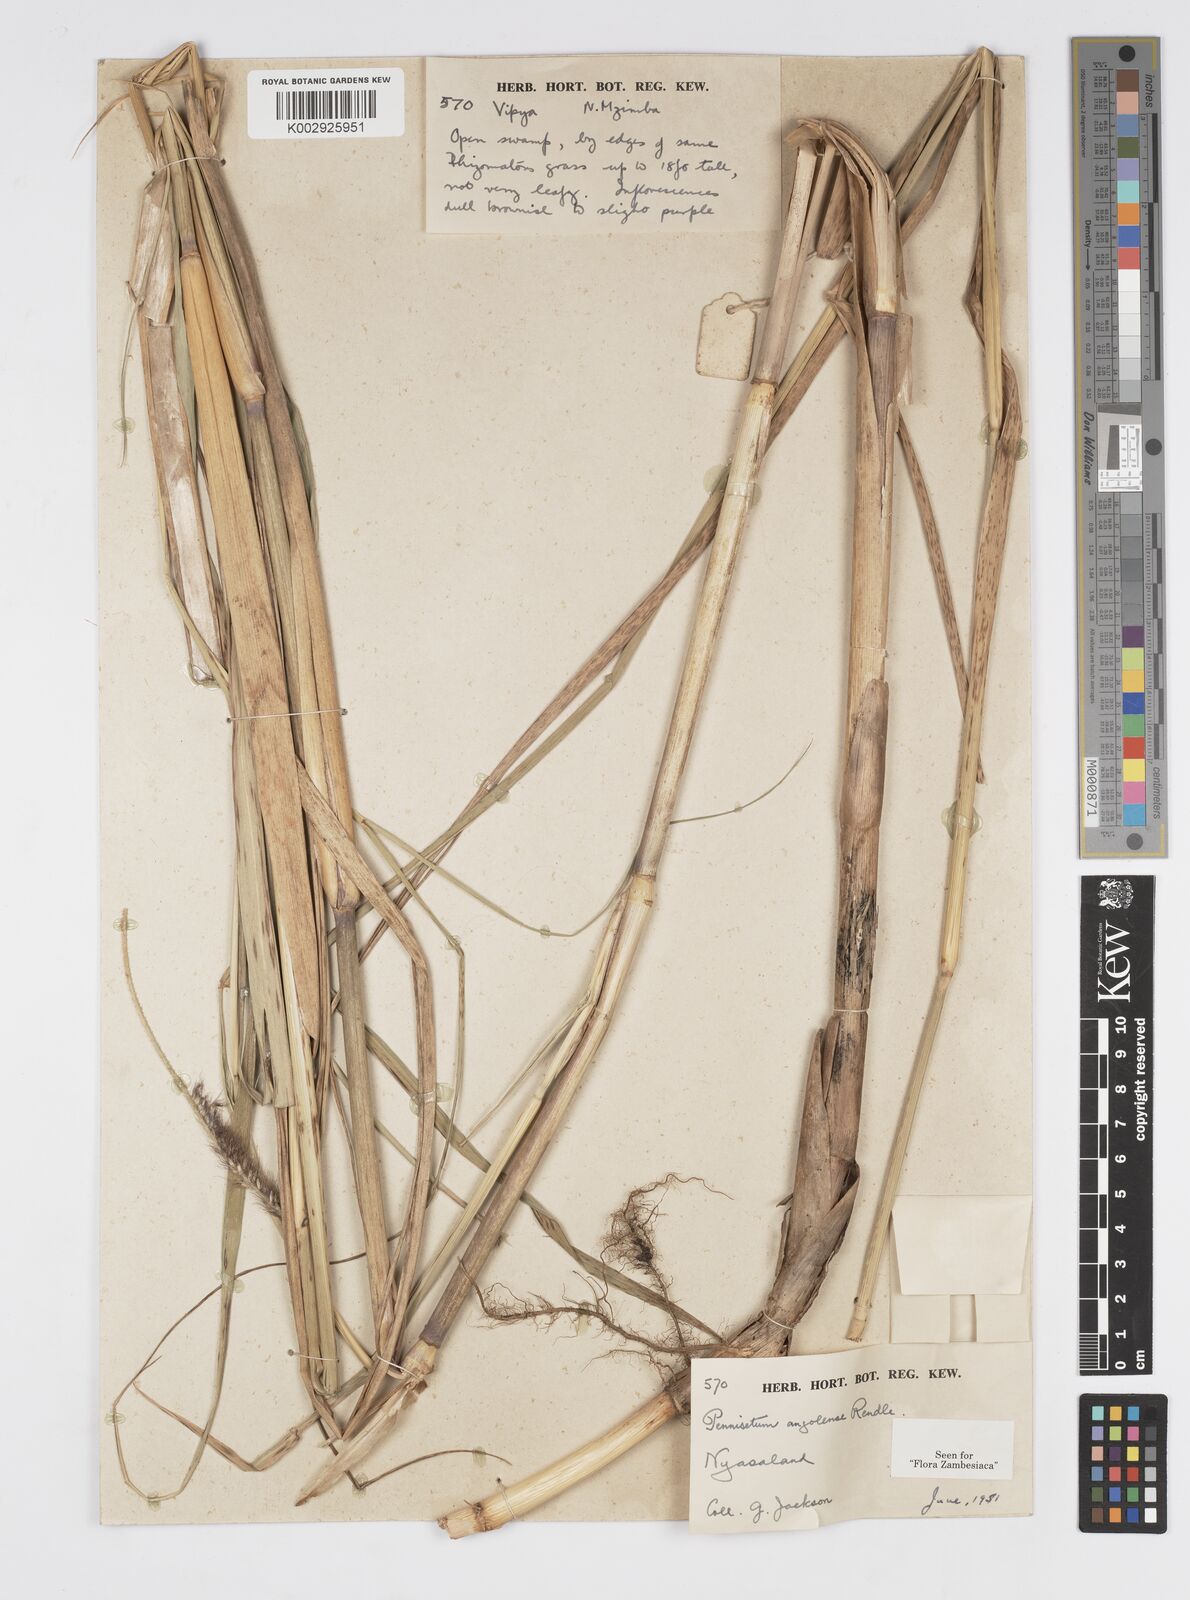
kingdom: Plantae
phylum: Tracheophyta
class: Liliopsida
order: Poales
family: Poaceae
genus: Cenchrus
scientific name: Cenchrus caudatus
